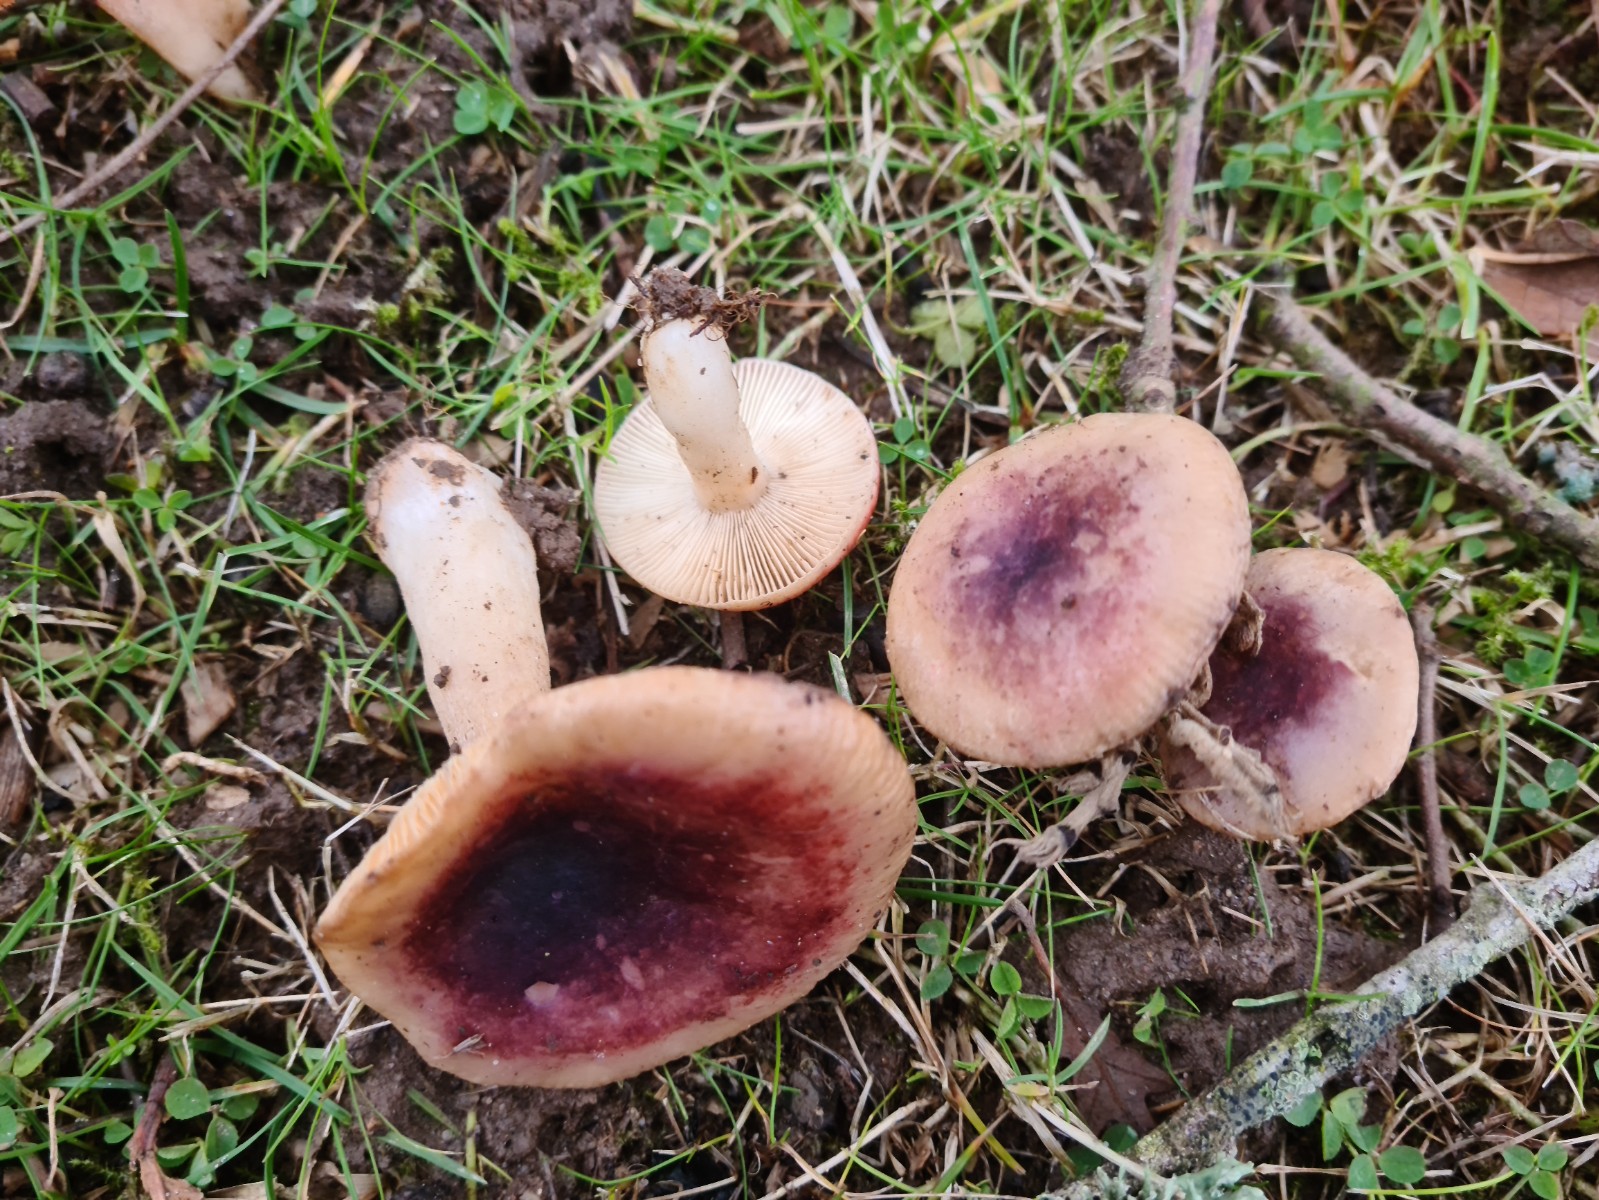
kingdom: Fungi
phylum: Basidiomycota
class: Agaricomycetes
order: Russulales
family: Russulaceae
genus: Russula
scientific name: Russula fragilis
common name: savbladet skørhat
